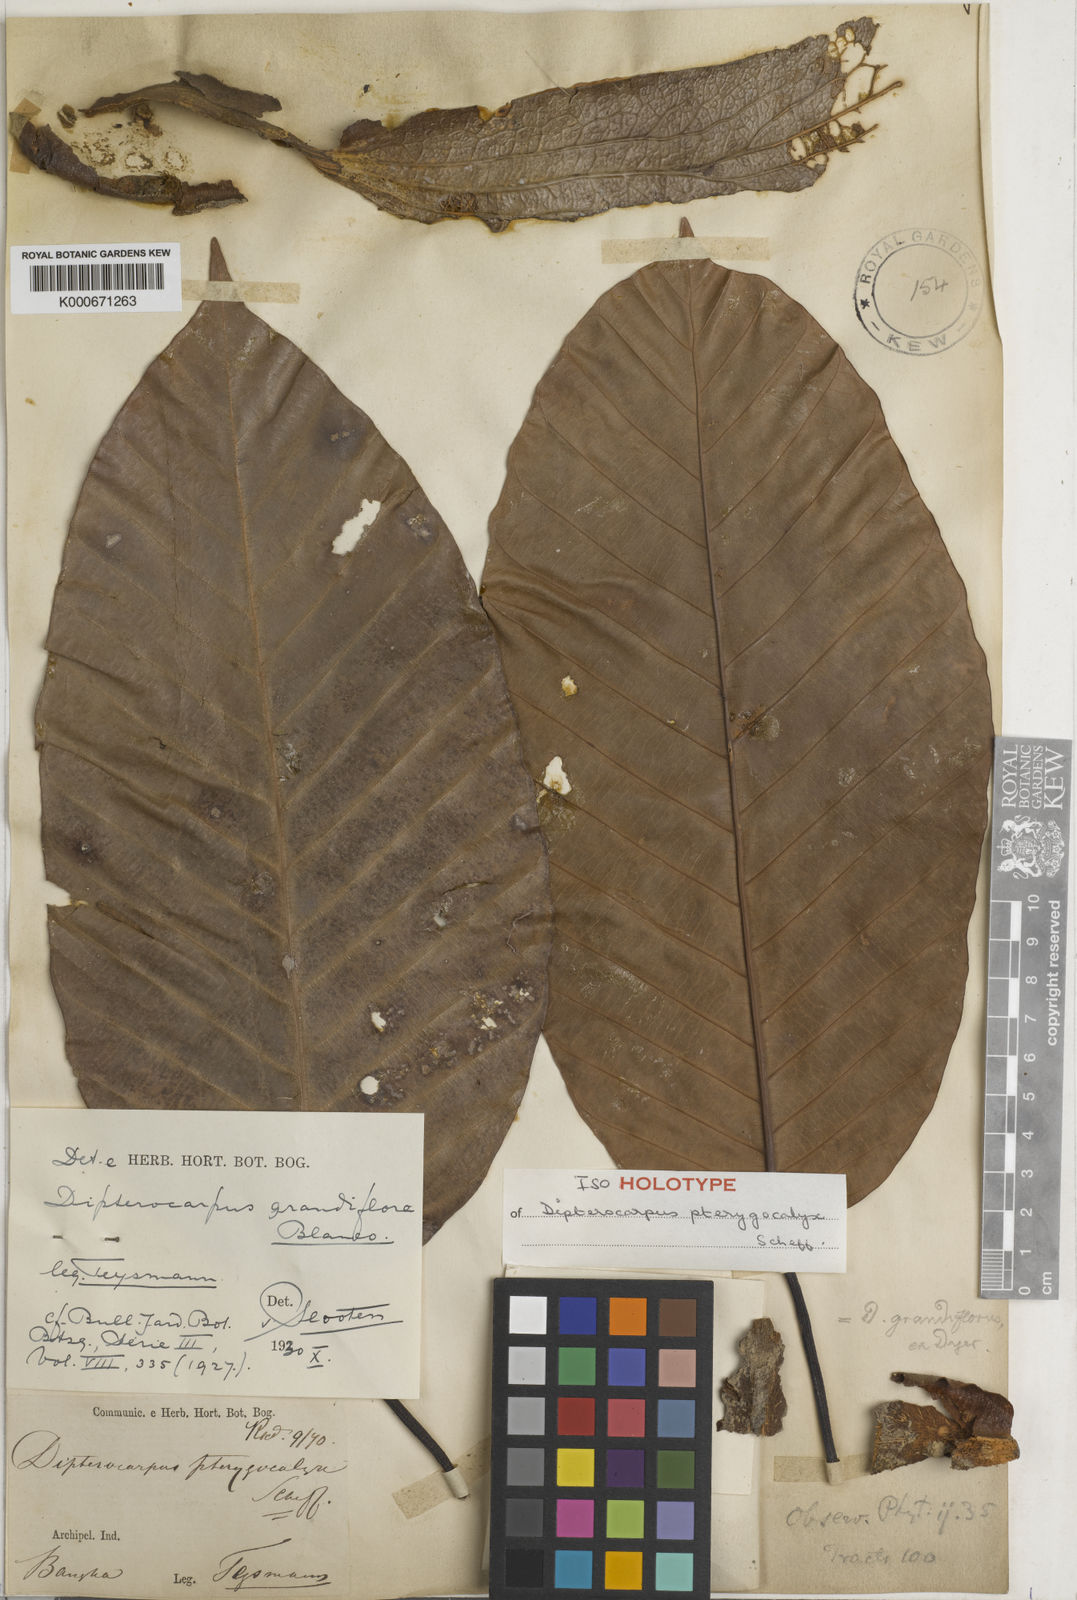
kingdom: Plantae
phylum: Tracheophyta
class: Magnoliopsida
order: Malvales
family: Dipterocarpaceae
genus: Dipterocarpus
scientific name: Dipterocarpus grandiflorus
